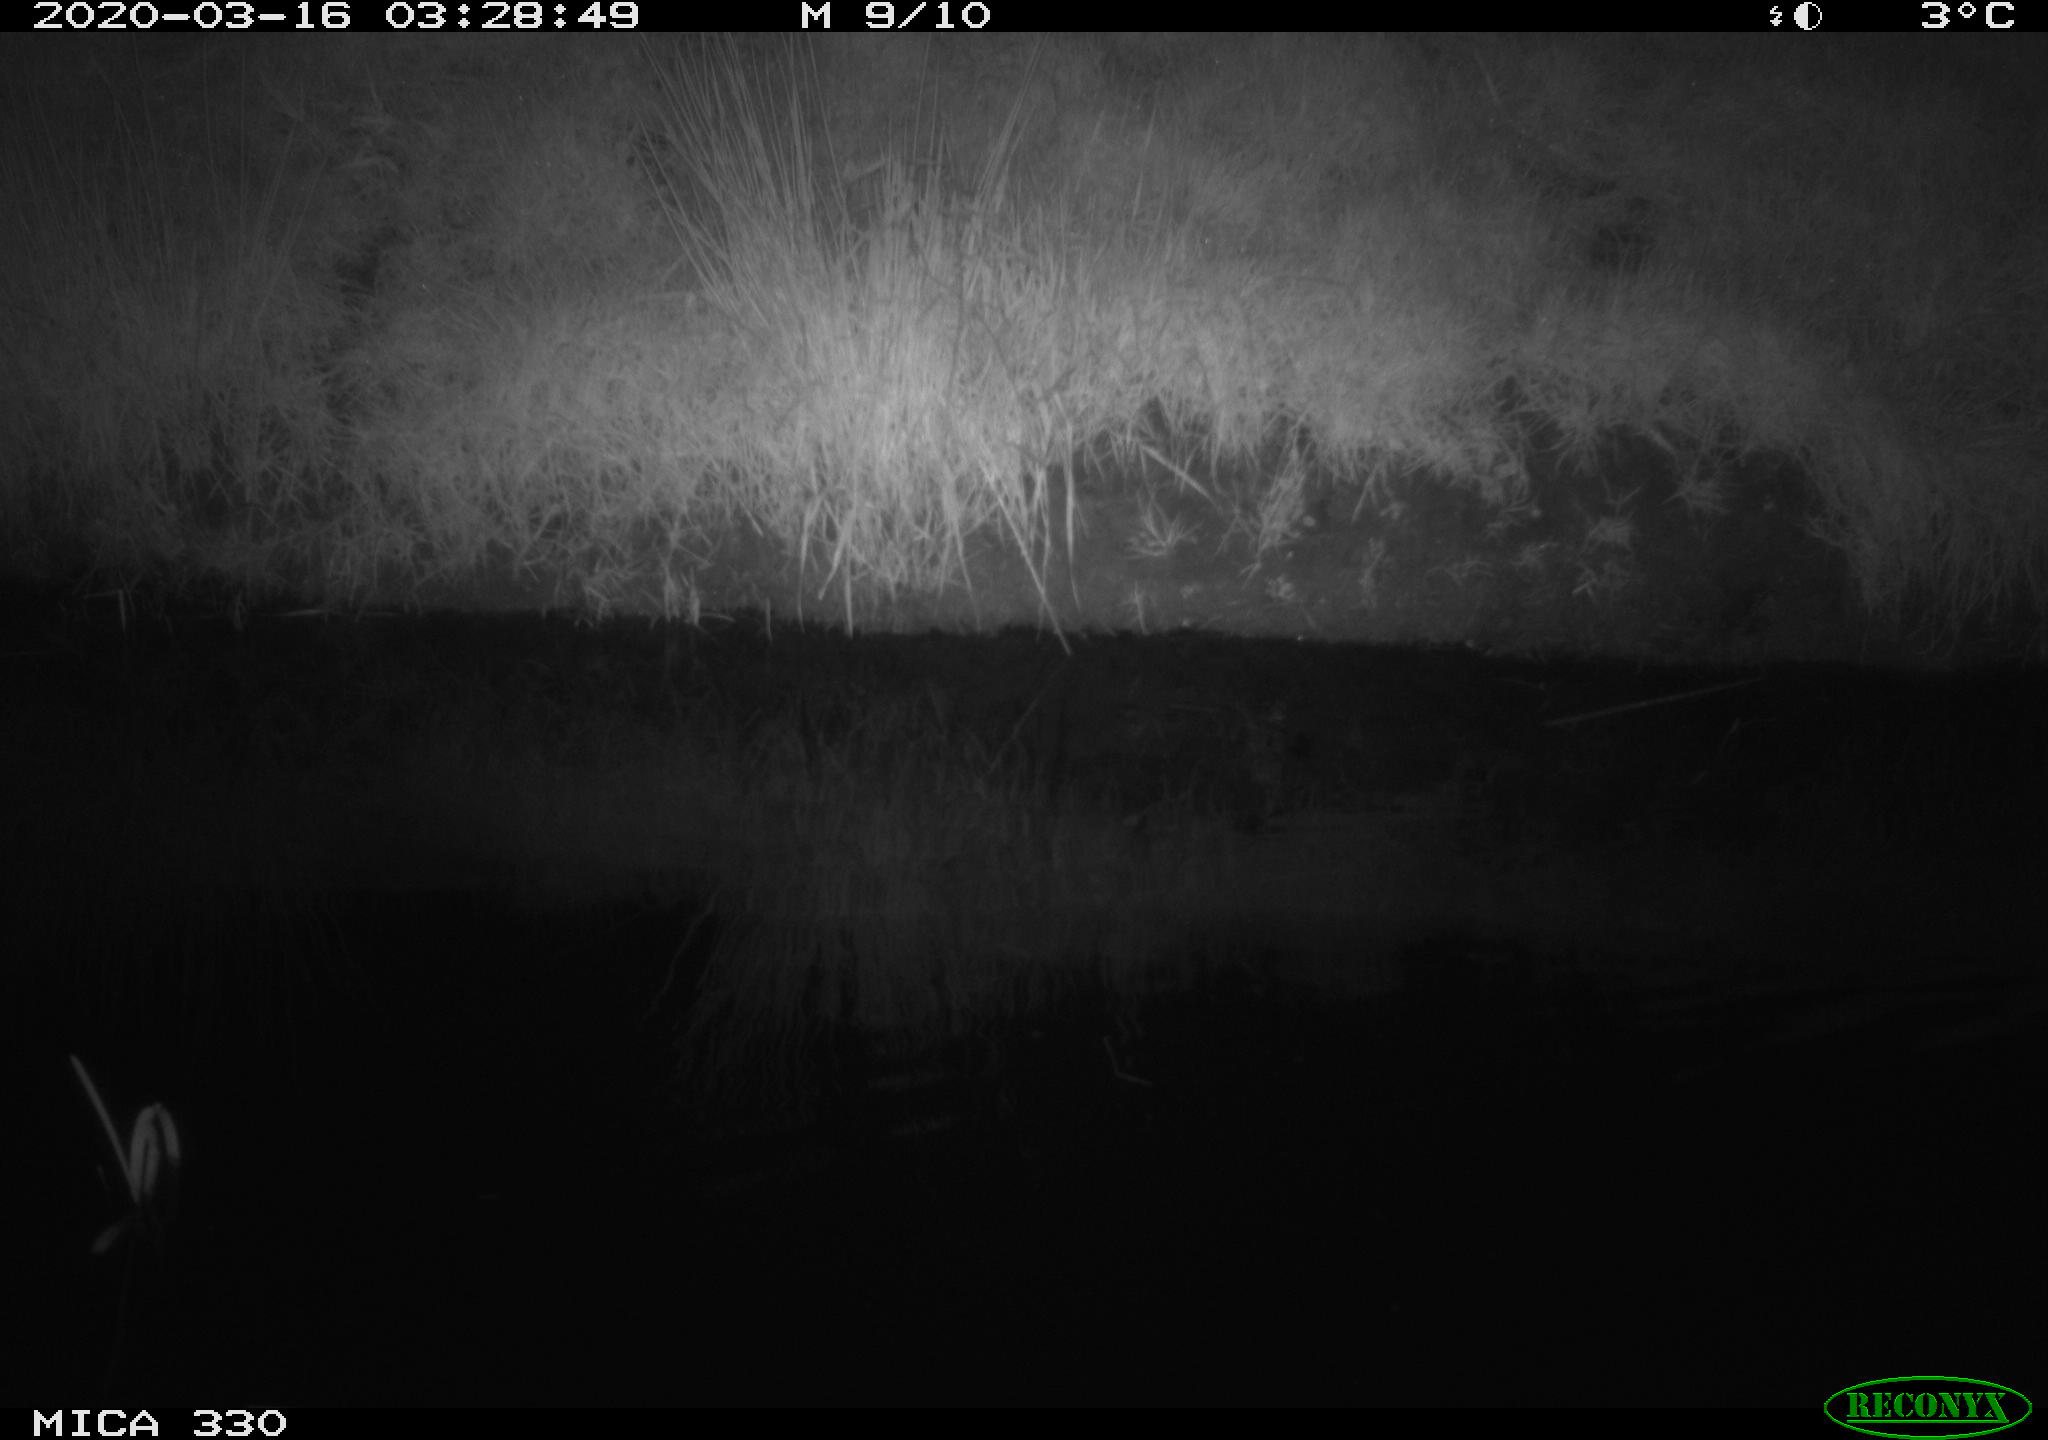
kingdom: Animalia
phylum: Chordata
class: Aves
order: Anseriformes
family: Anatidae
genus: Anas
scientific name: Anas platyrhynchos
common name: Mallard
